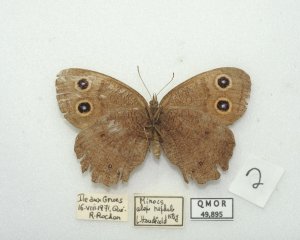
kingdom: Animalia
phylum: Arthropoda
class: Insecta
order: Lepidoptera
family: Nymphalidae
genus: Cercyonis
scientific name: Cercyonis pegala
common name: Common Wood-Nymph
